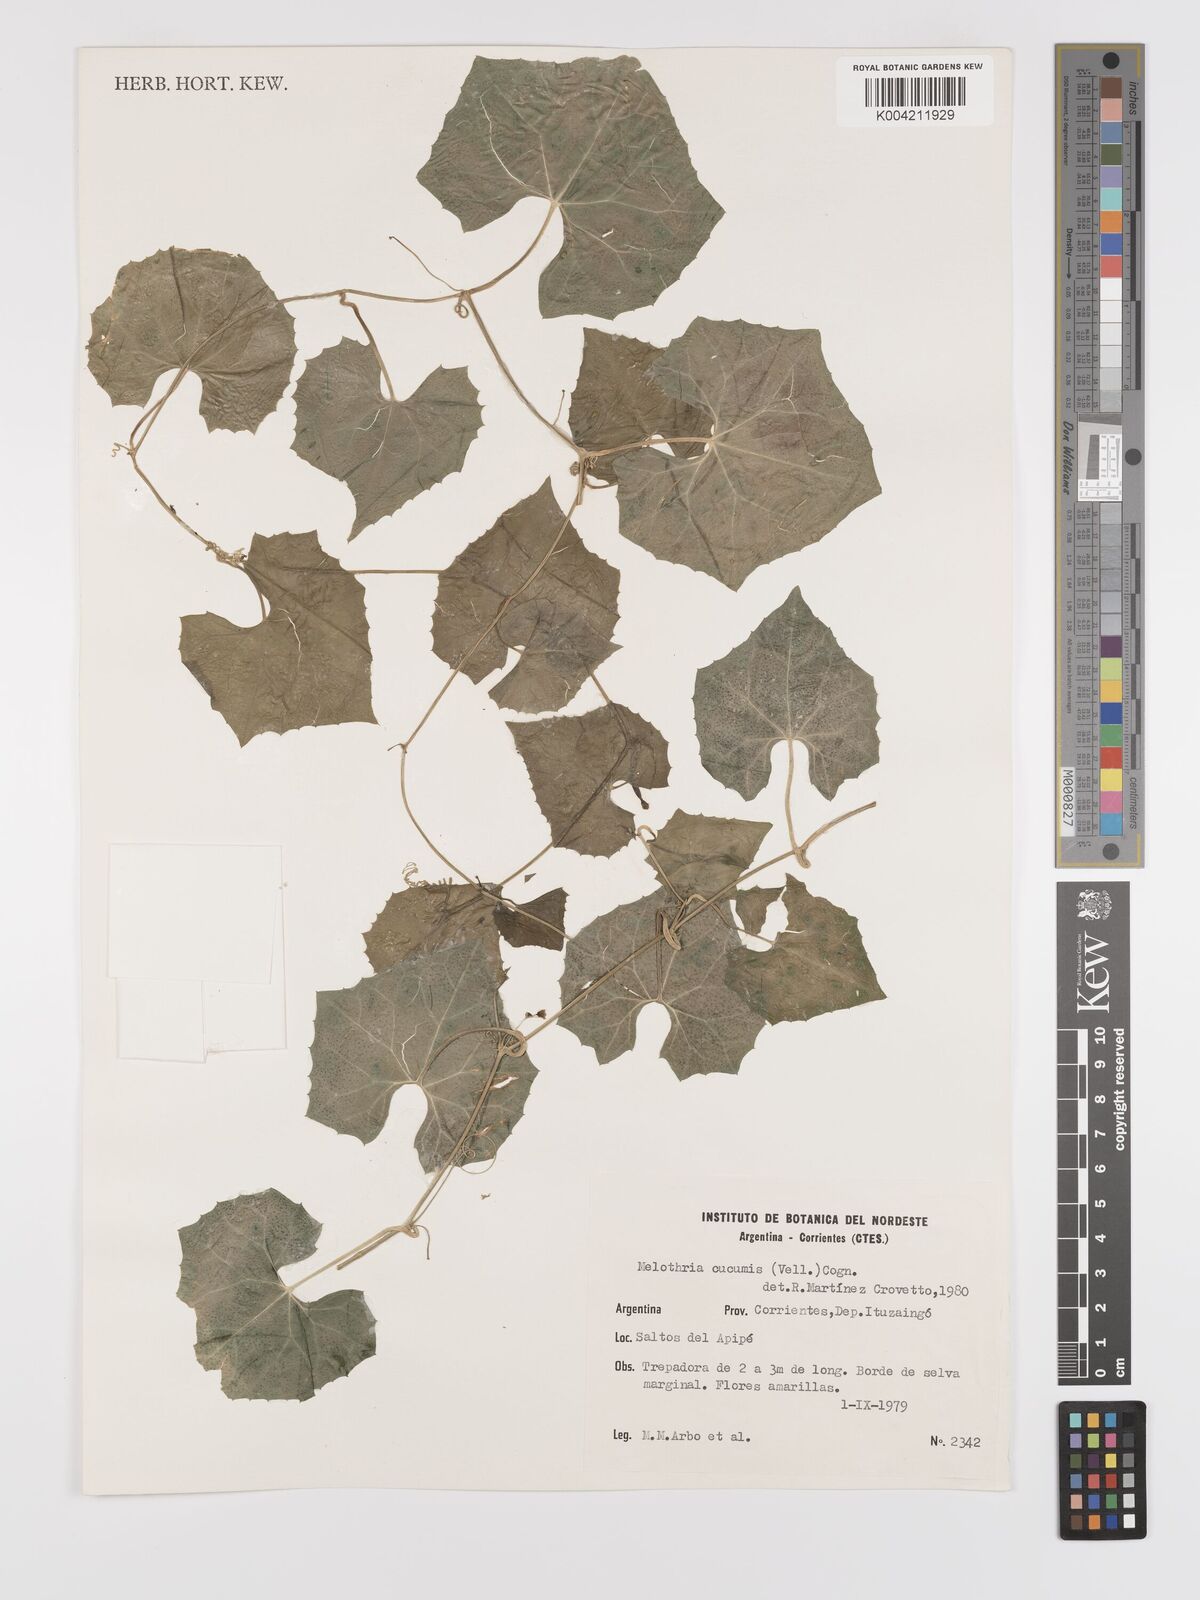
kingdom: Plantae
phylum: Tracheophyta
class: Magnoliopsida
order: Cucurbitales
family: Cucurbitaceae
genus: Melothria
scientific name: Melothria cucumis
